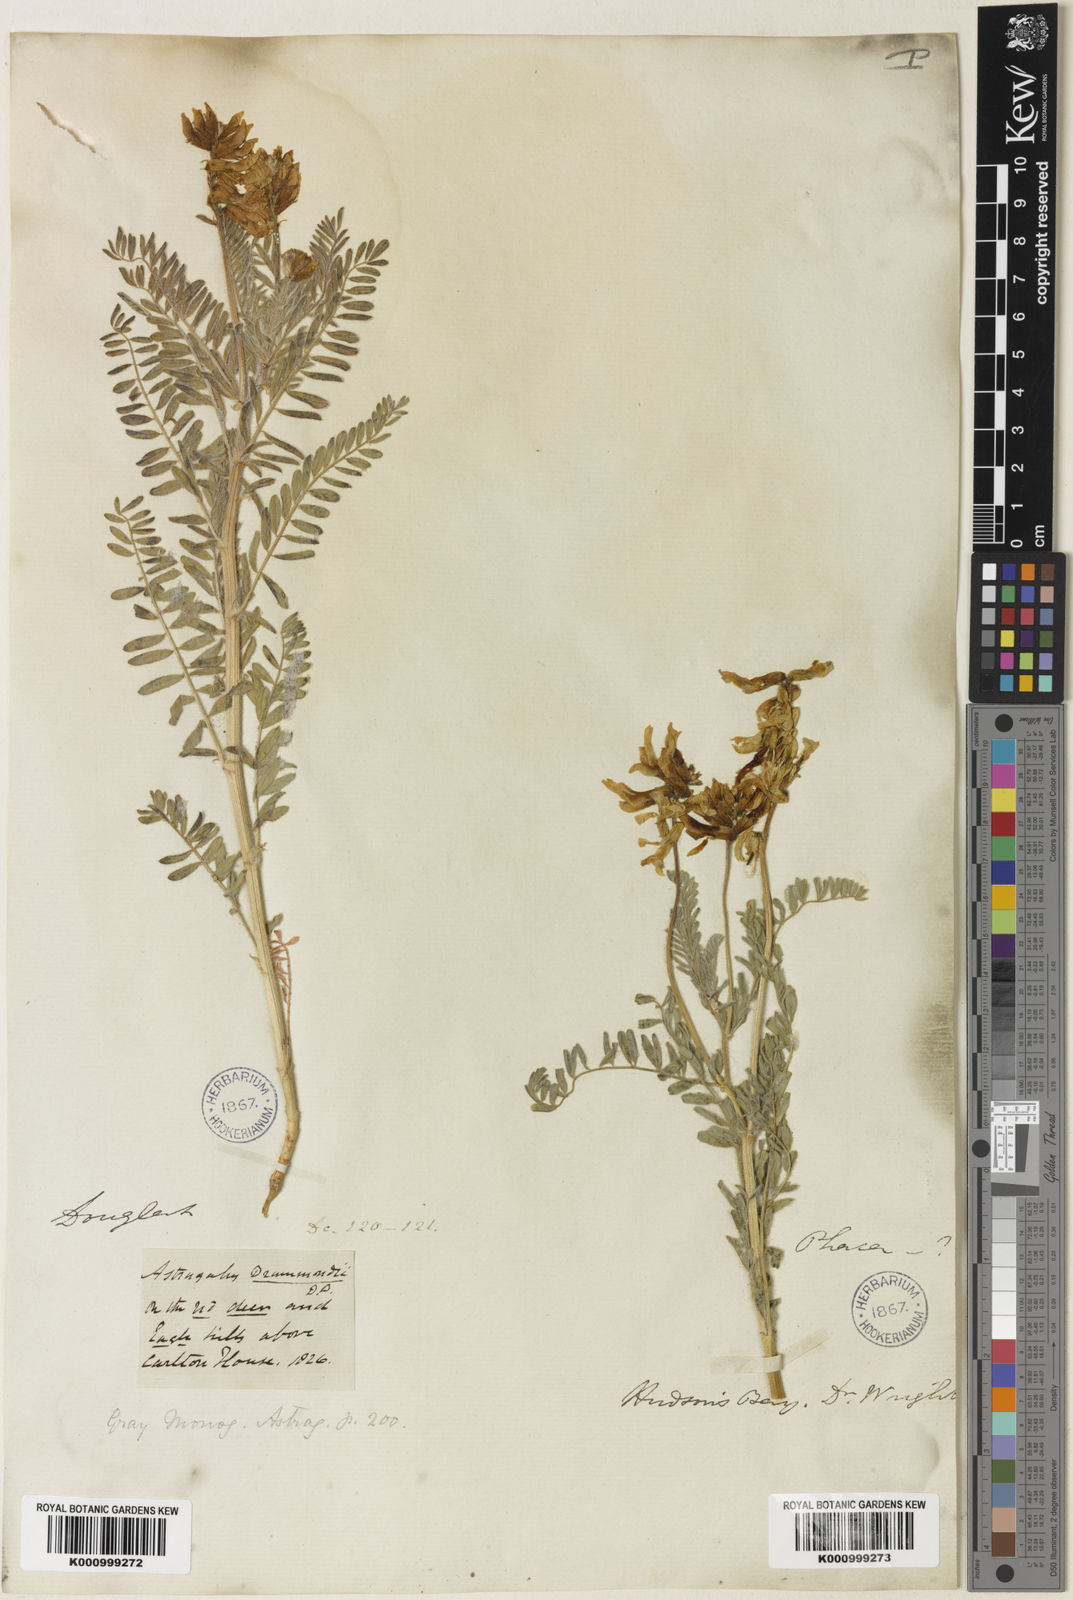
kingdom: Plantae
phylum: Tracheophyta
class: Magnoliopsida
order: Fabales
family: Fabaceae
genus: Astragalus
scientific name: Astragalus
